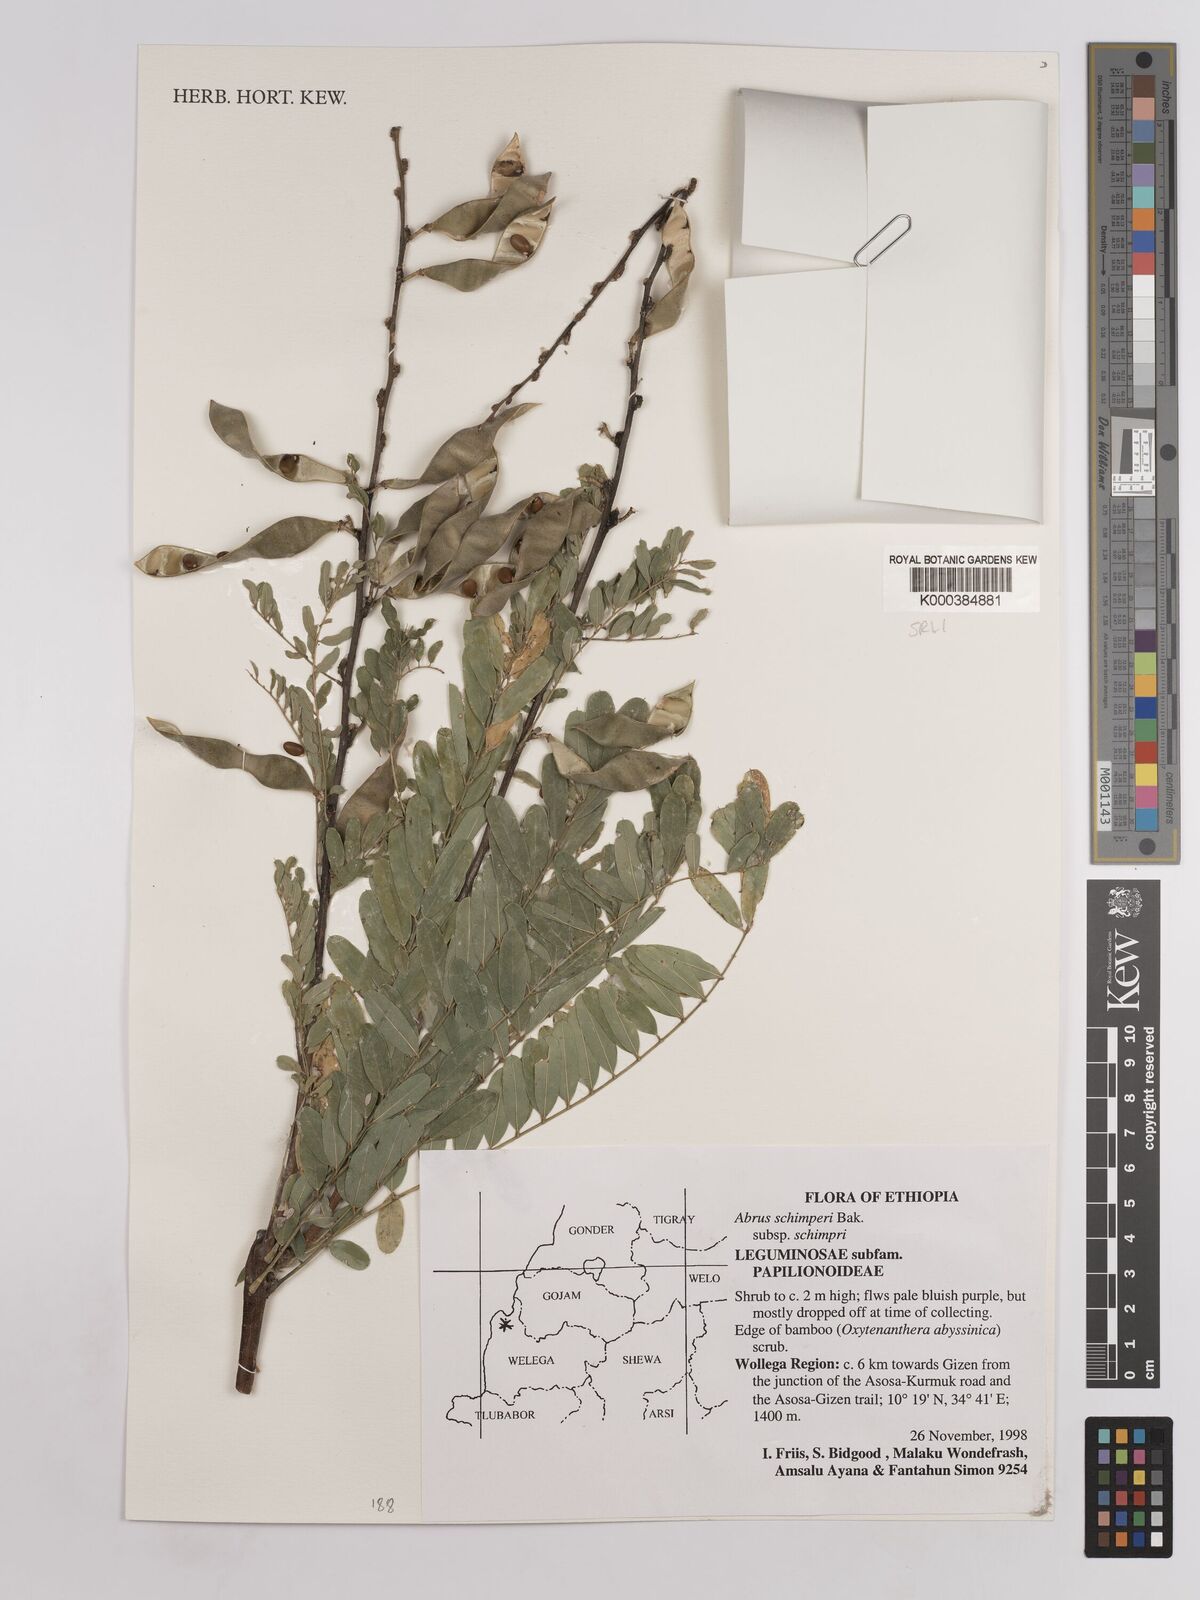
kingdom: Plantae
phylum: Tracheophyta
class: Magnoliopsida
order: Fabales
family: Fabaceae
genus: Abrus
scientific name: Abrus
